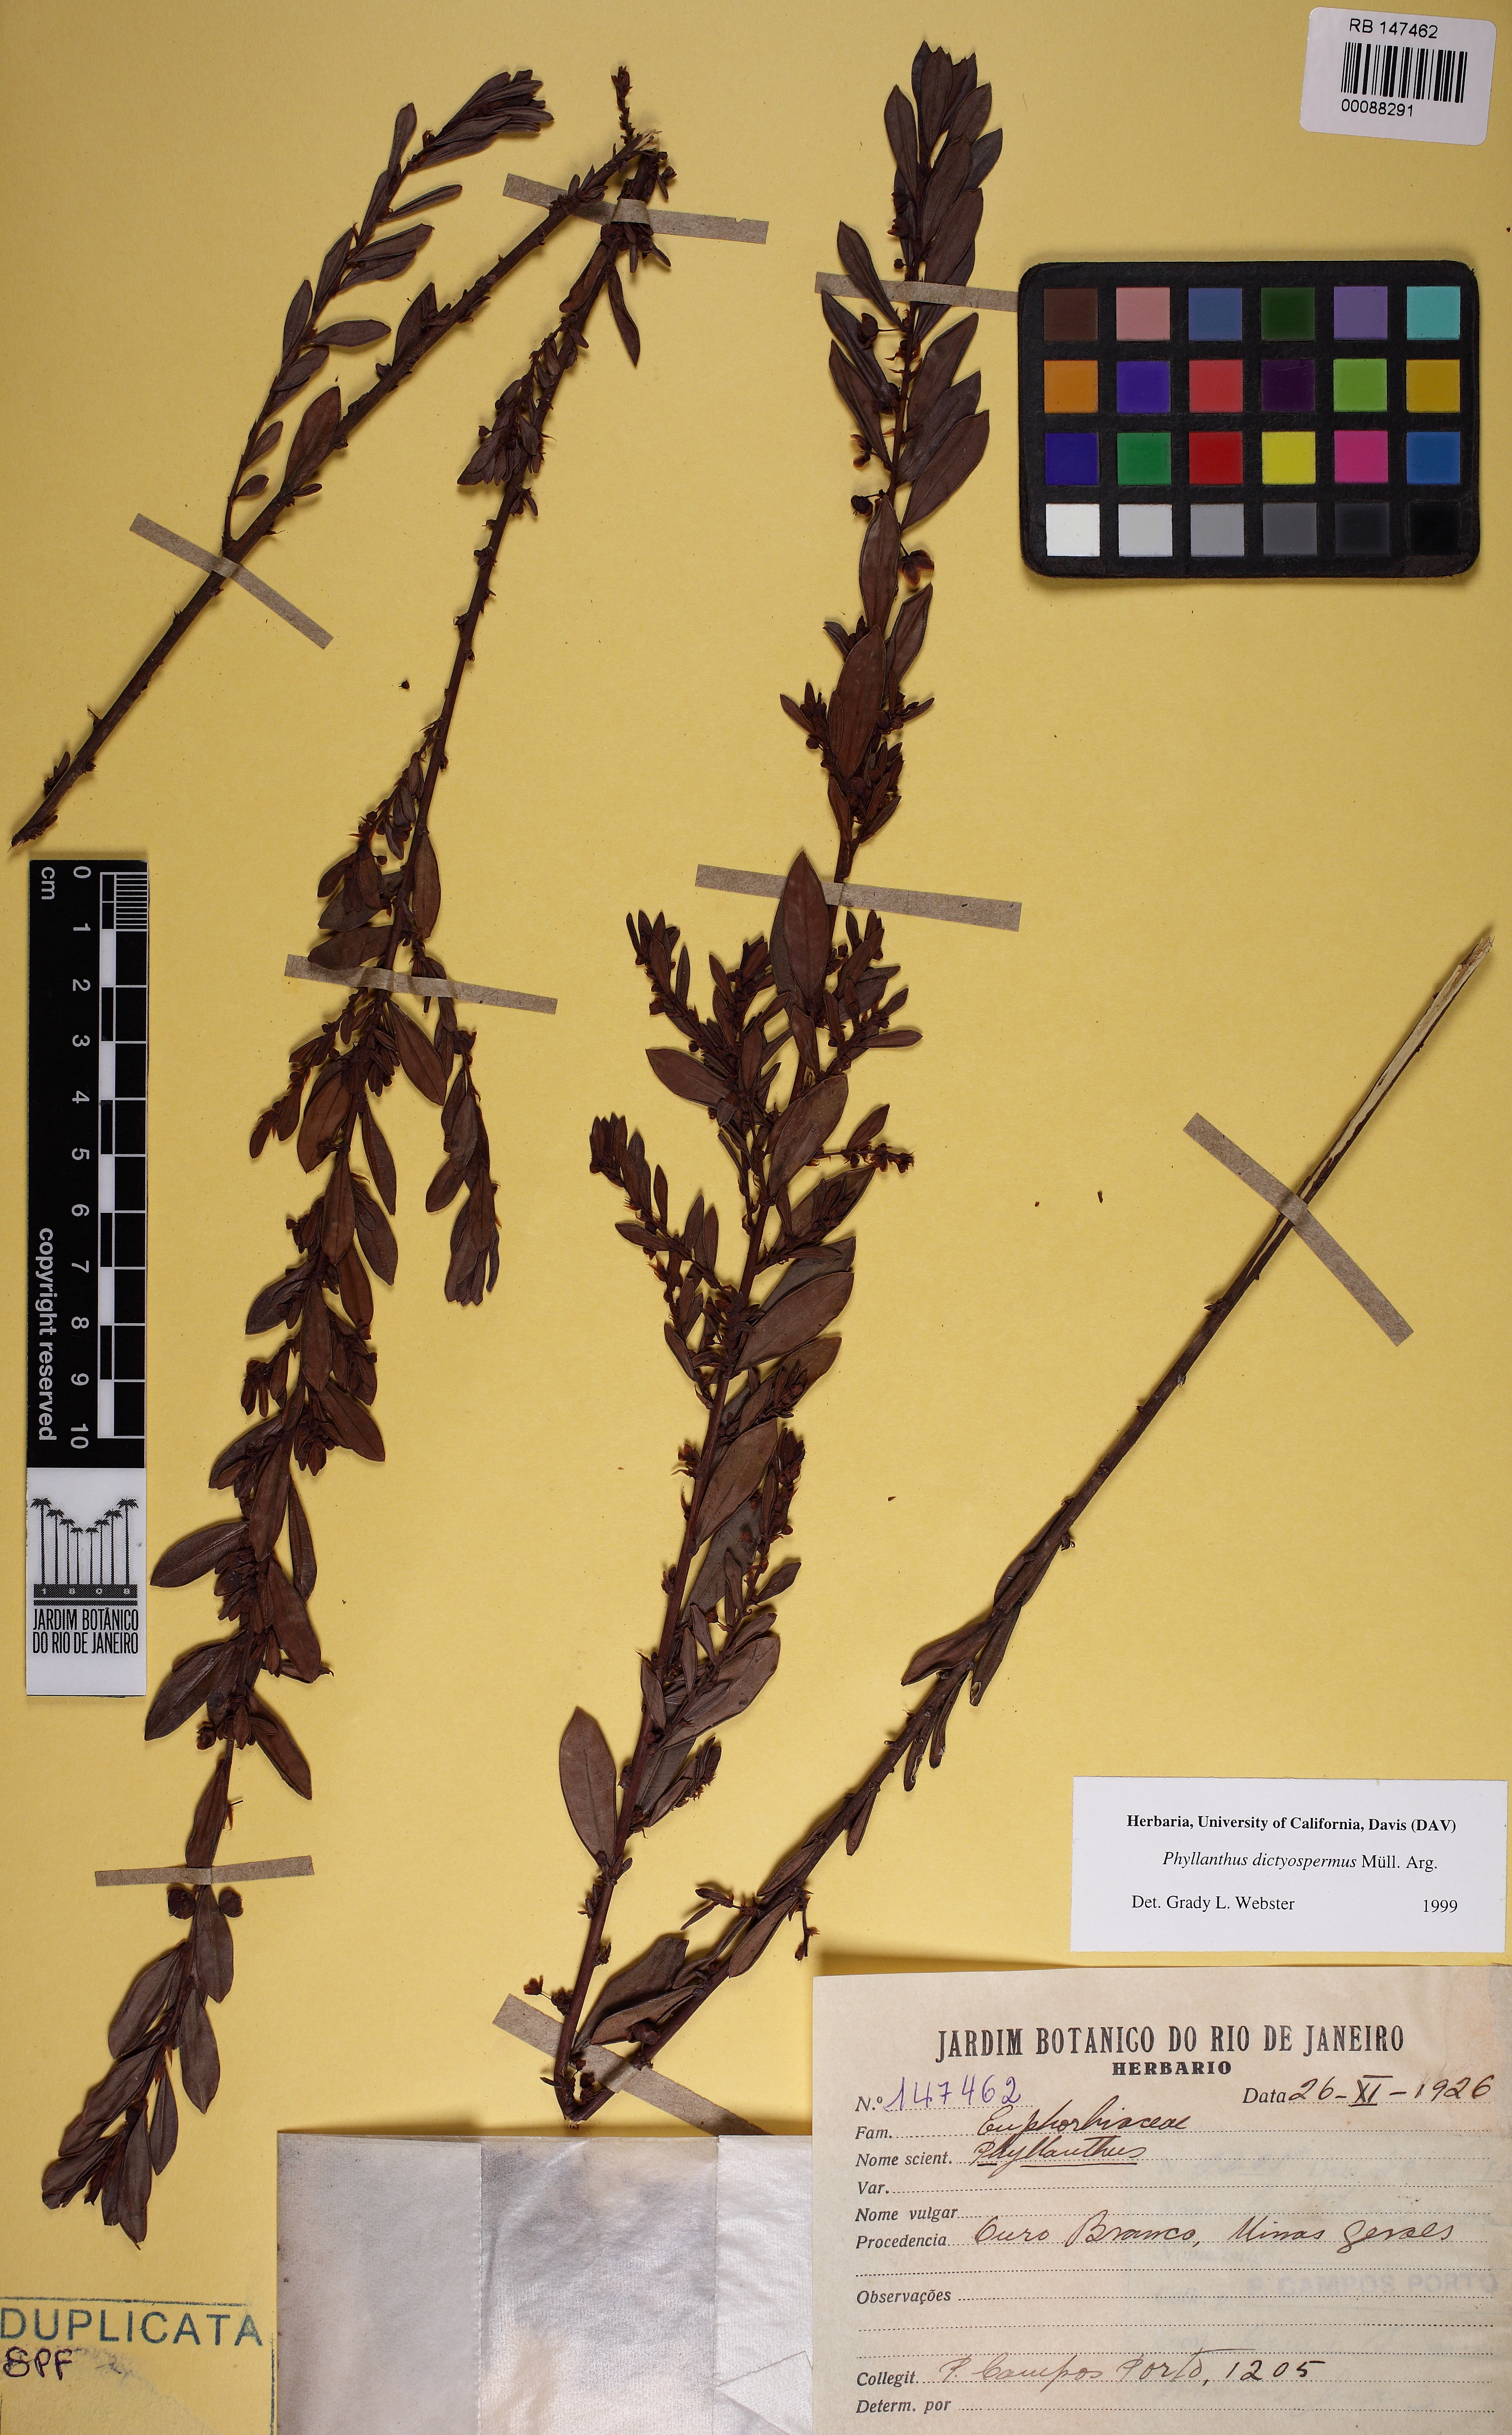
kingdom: Plantae
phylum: Tracheophyta
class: Magnoliopsida
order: Malpighiales
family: Phyllanthaceae
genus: Phyllanthus
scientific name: Phyllanthus dictyospermus
